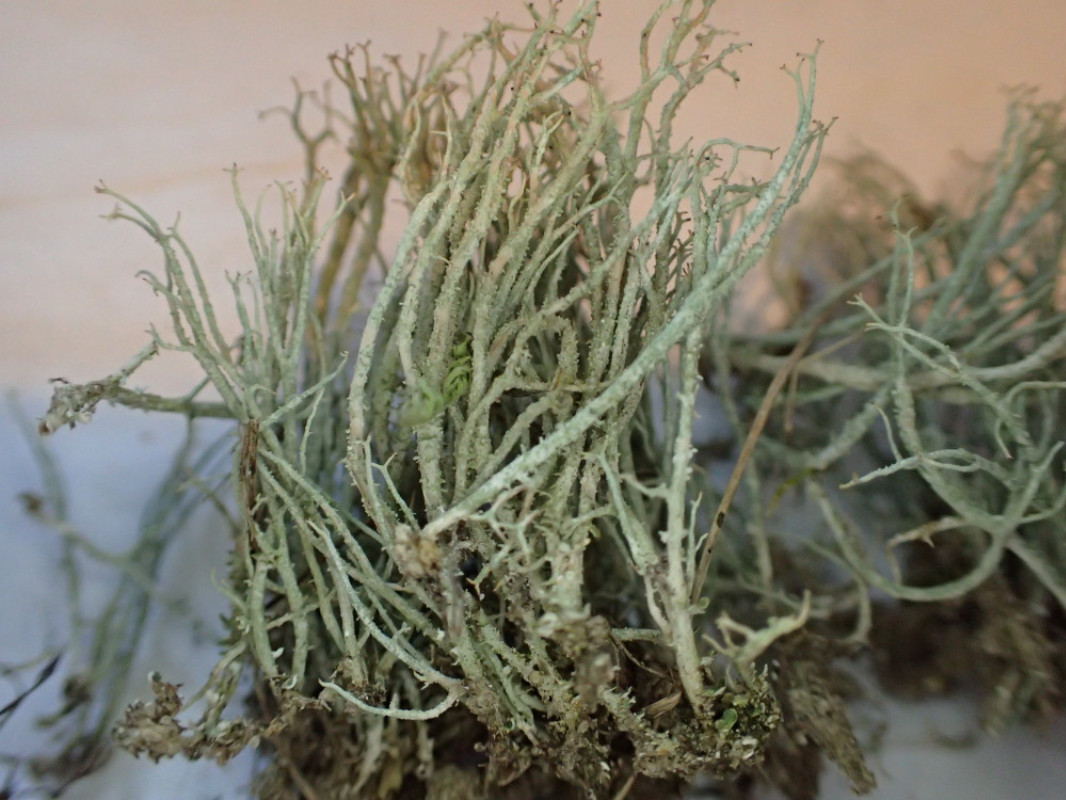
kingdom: Fungi
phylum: Ascomycota
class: Lecanoromycetes
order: Lecanorales
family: Cladoniaceae
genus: Cladonia
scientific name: Cladonia scabriuscula
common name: ru bægerlav
